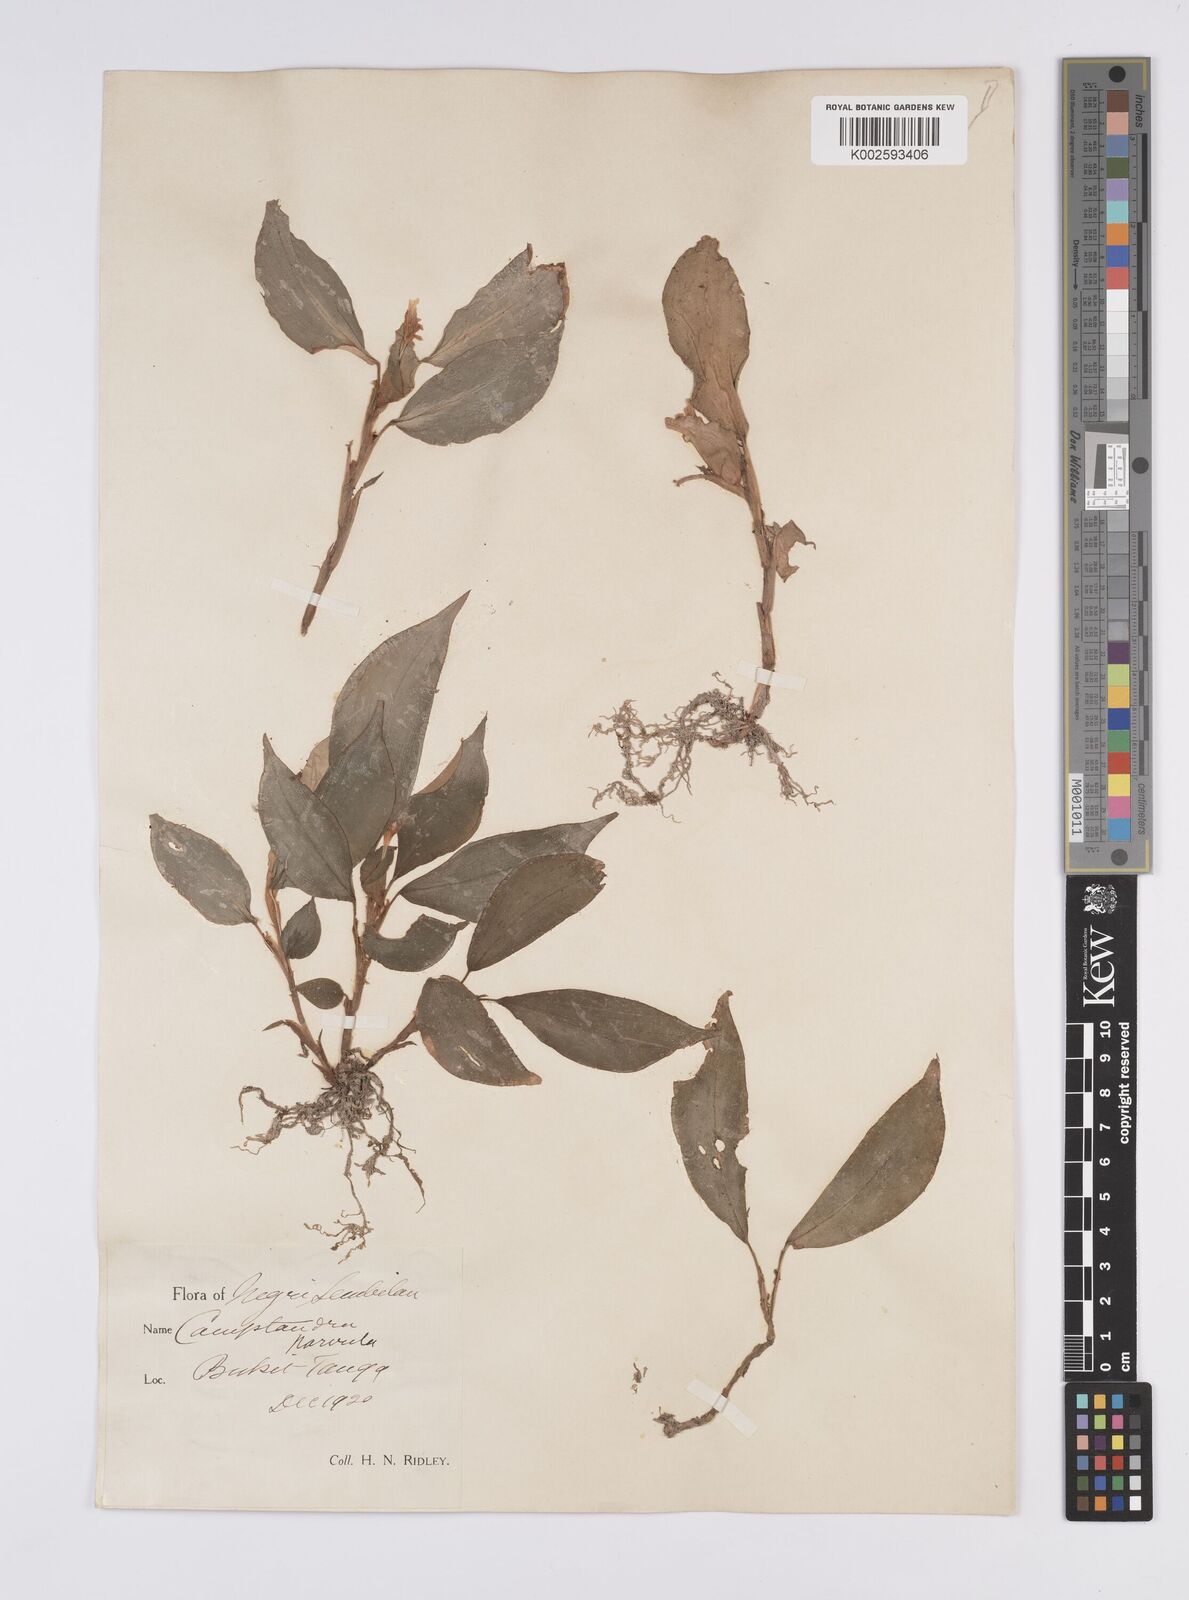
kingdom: Plantae
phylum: Tracheophyta
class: Liliopsida
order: Zingiberales
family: Zingiberaceae
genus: Camptandra
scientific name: Camptandra parvula
